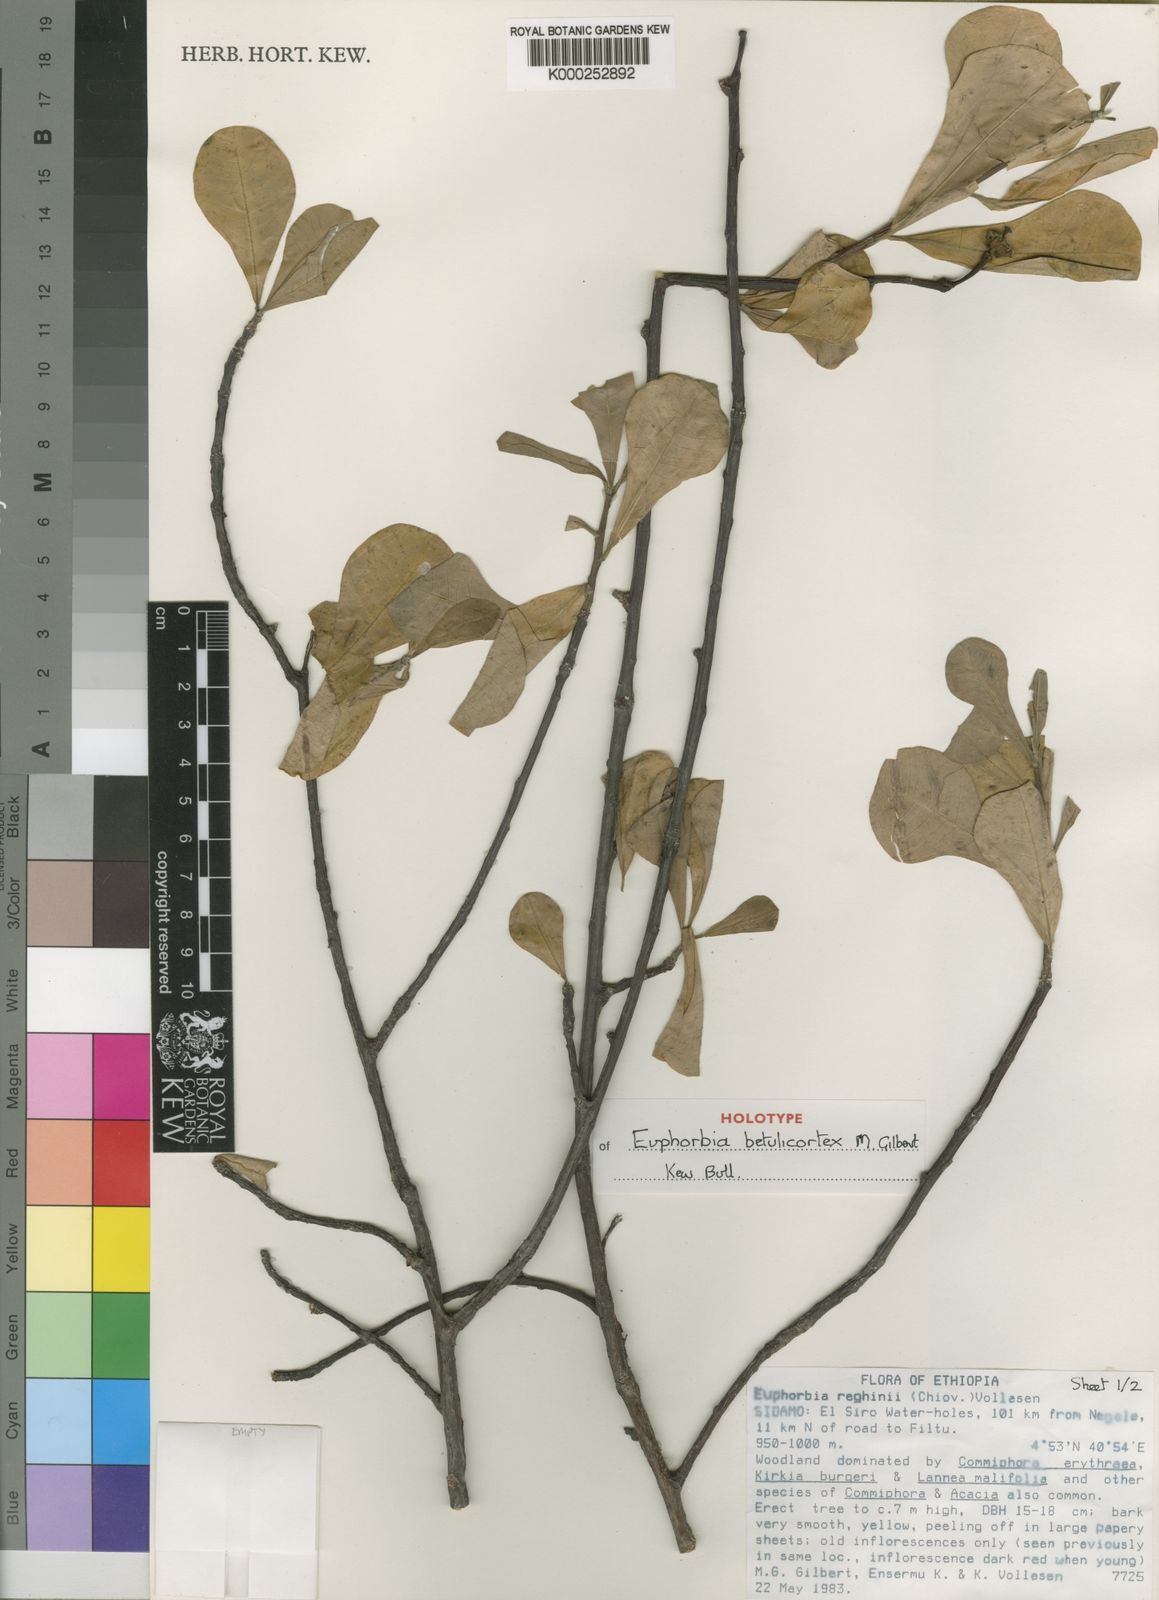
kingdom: Plantae
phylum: Tracheophyta
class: Magnoliopsida
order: Malpighiales
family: Euphorbiaceae
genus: Euphorbia
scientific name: Euphorbia betulicortex
